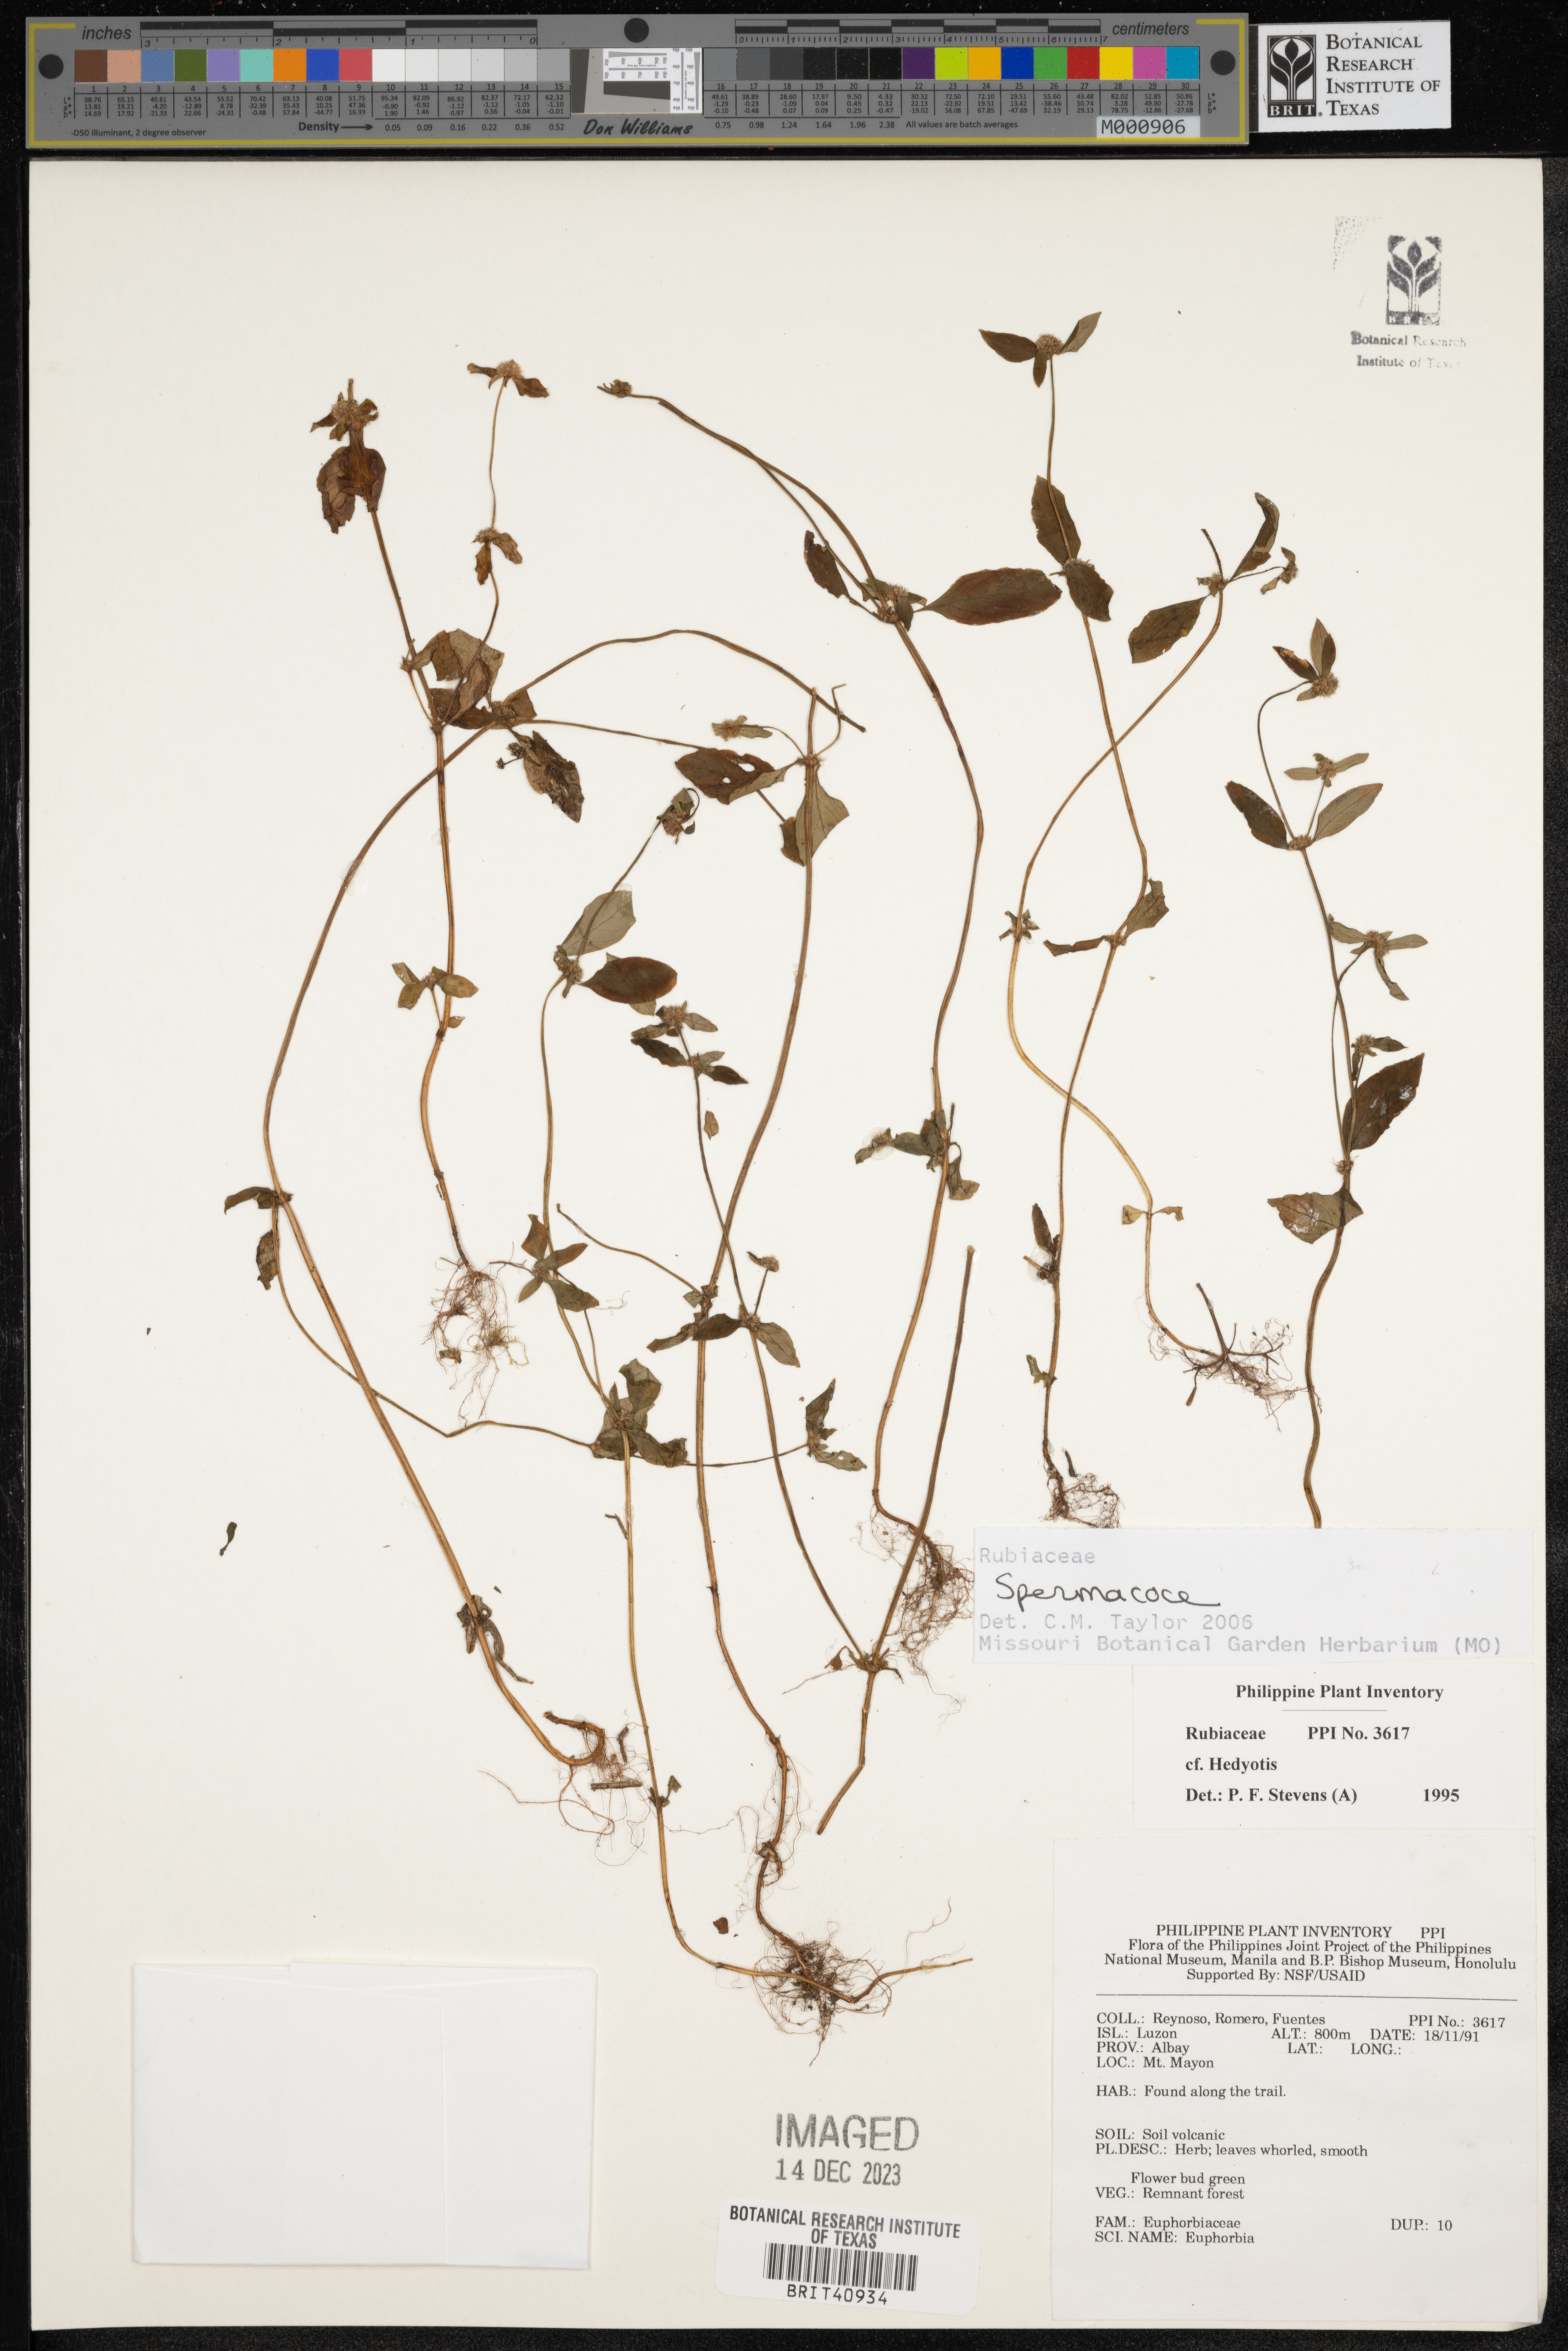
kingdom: Plantae
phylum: Tracheophyta
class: Magnoliopsida
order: Gentianales
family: Rubiaceae
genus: Spermacoce
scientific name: Spermacoce
